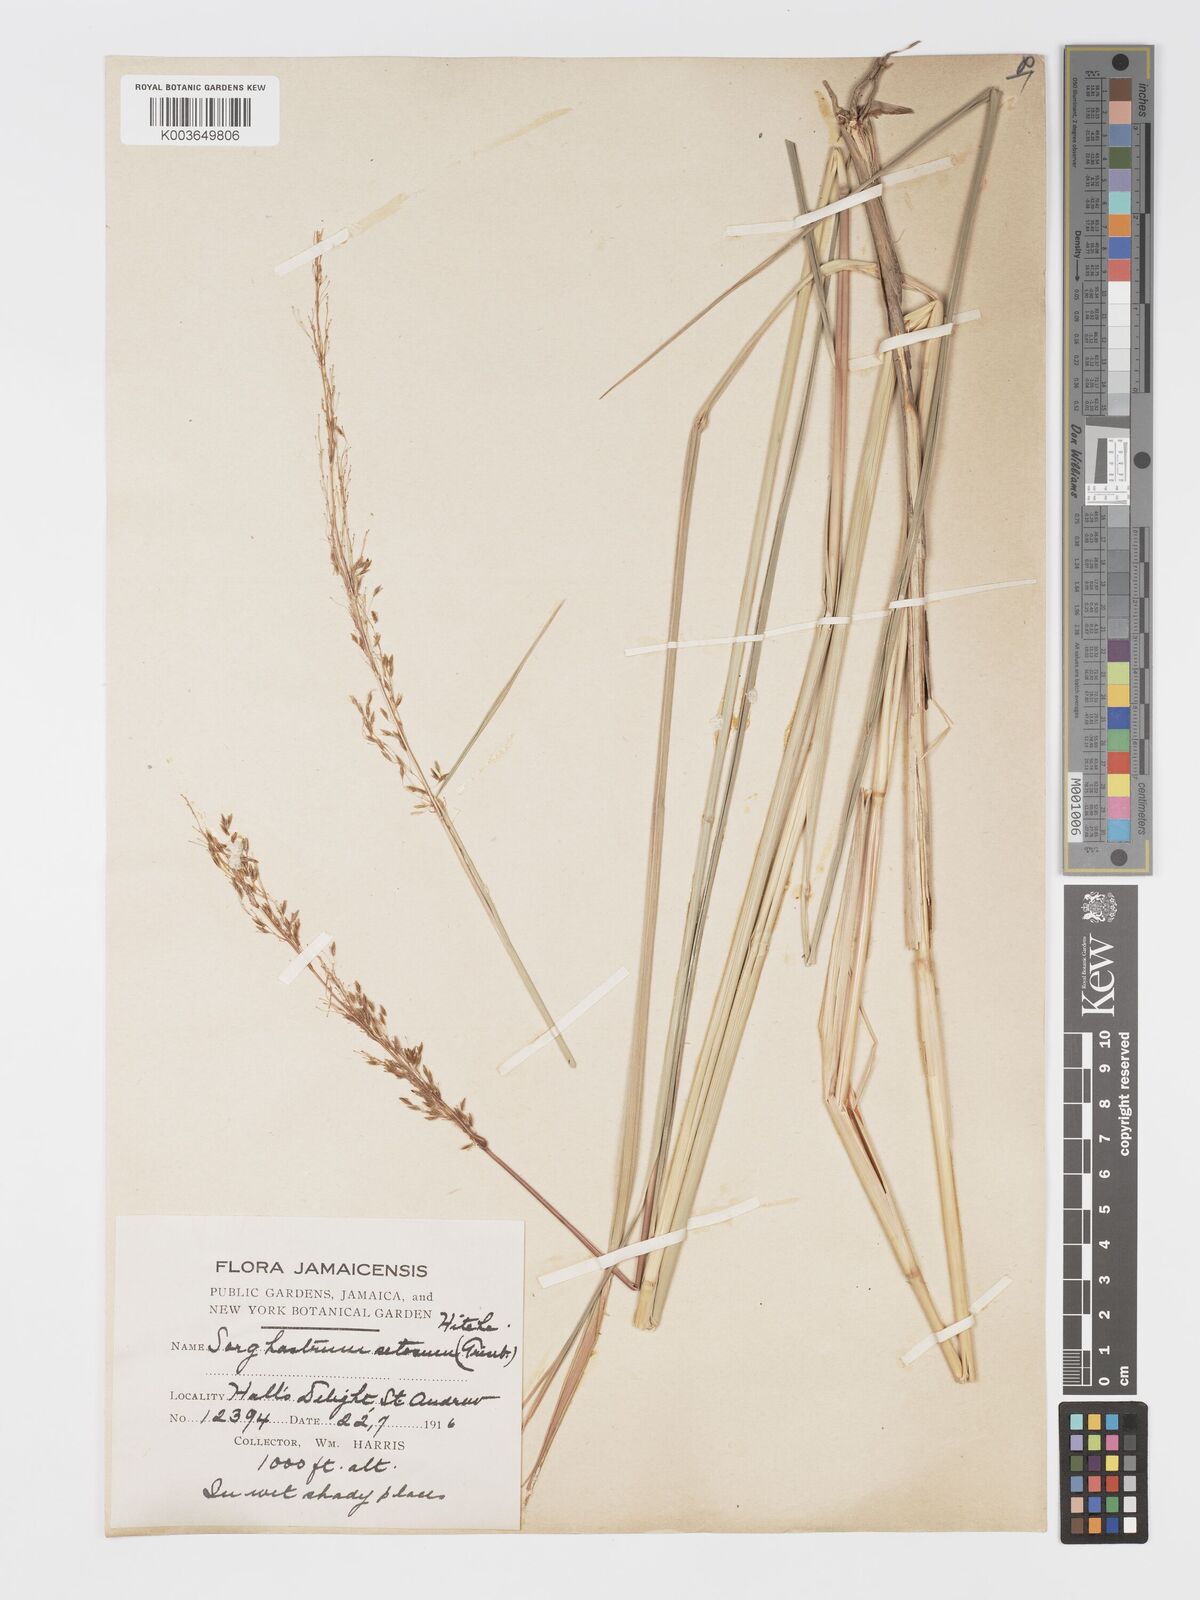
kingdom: Plantae
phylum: Tracheophyta
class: Liliopsida
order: Poales
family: Poaceae
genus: Sorghastrum
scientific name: Sorghastrum setosum
